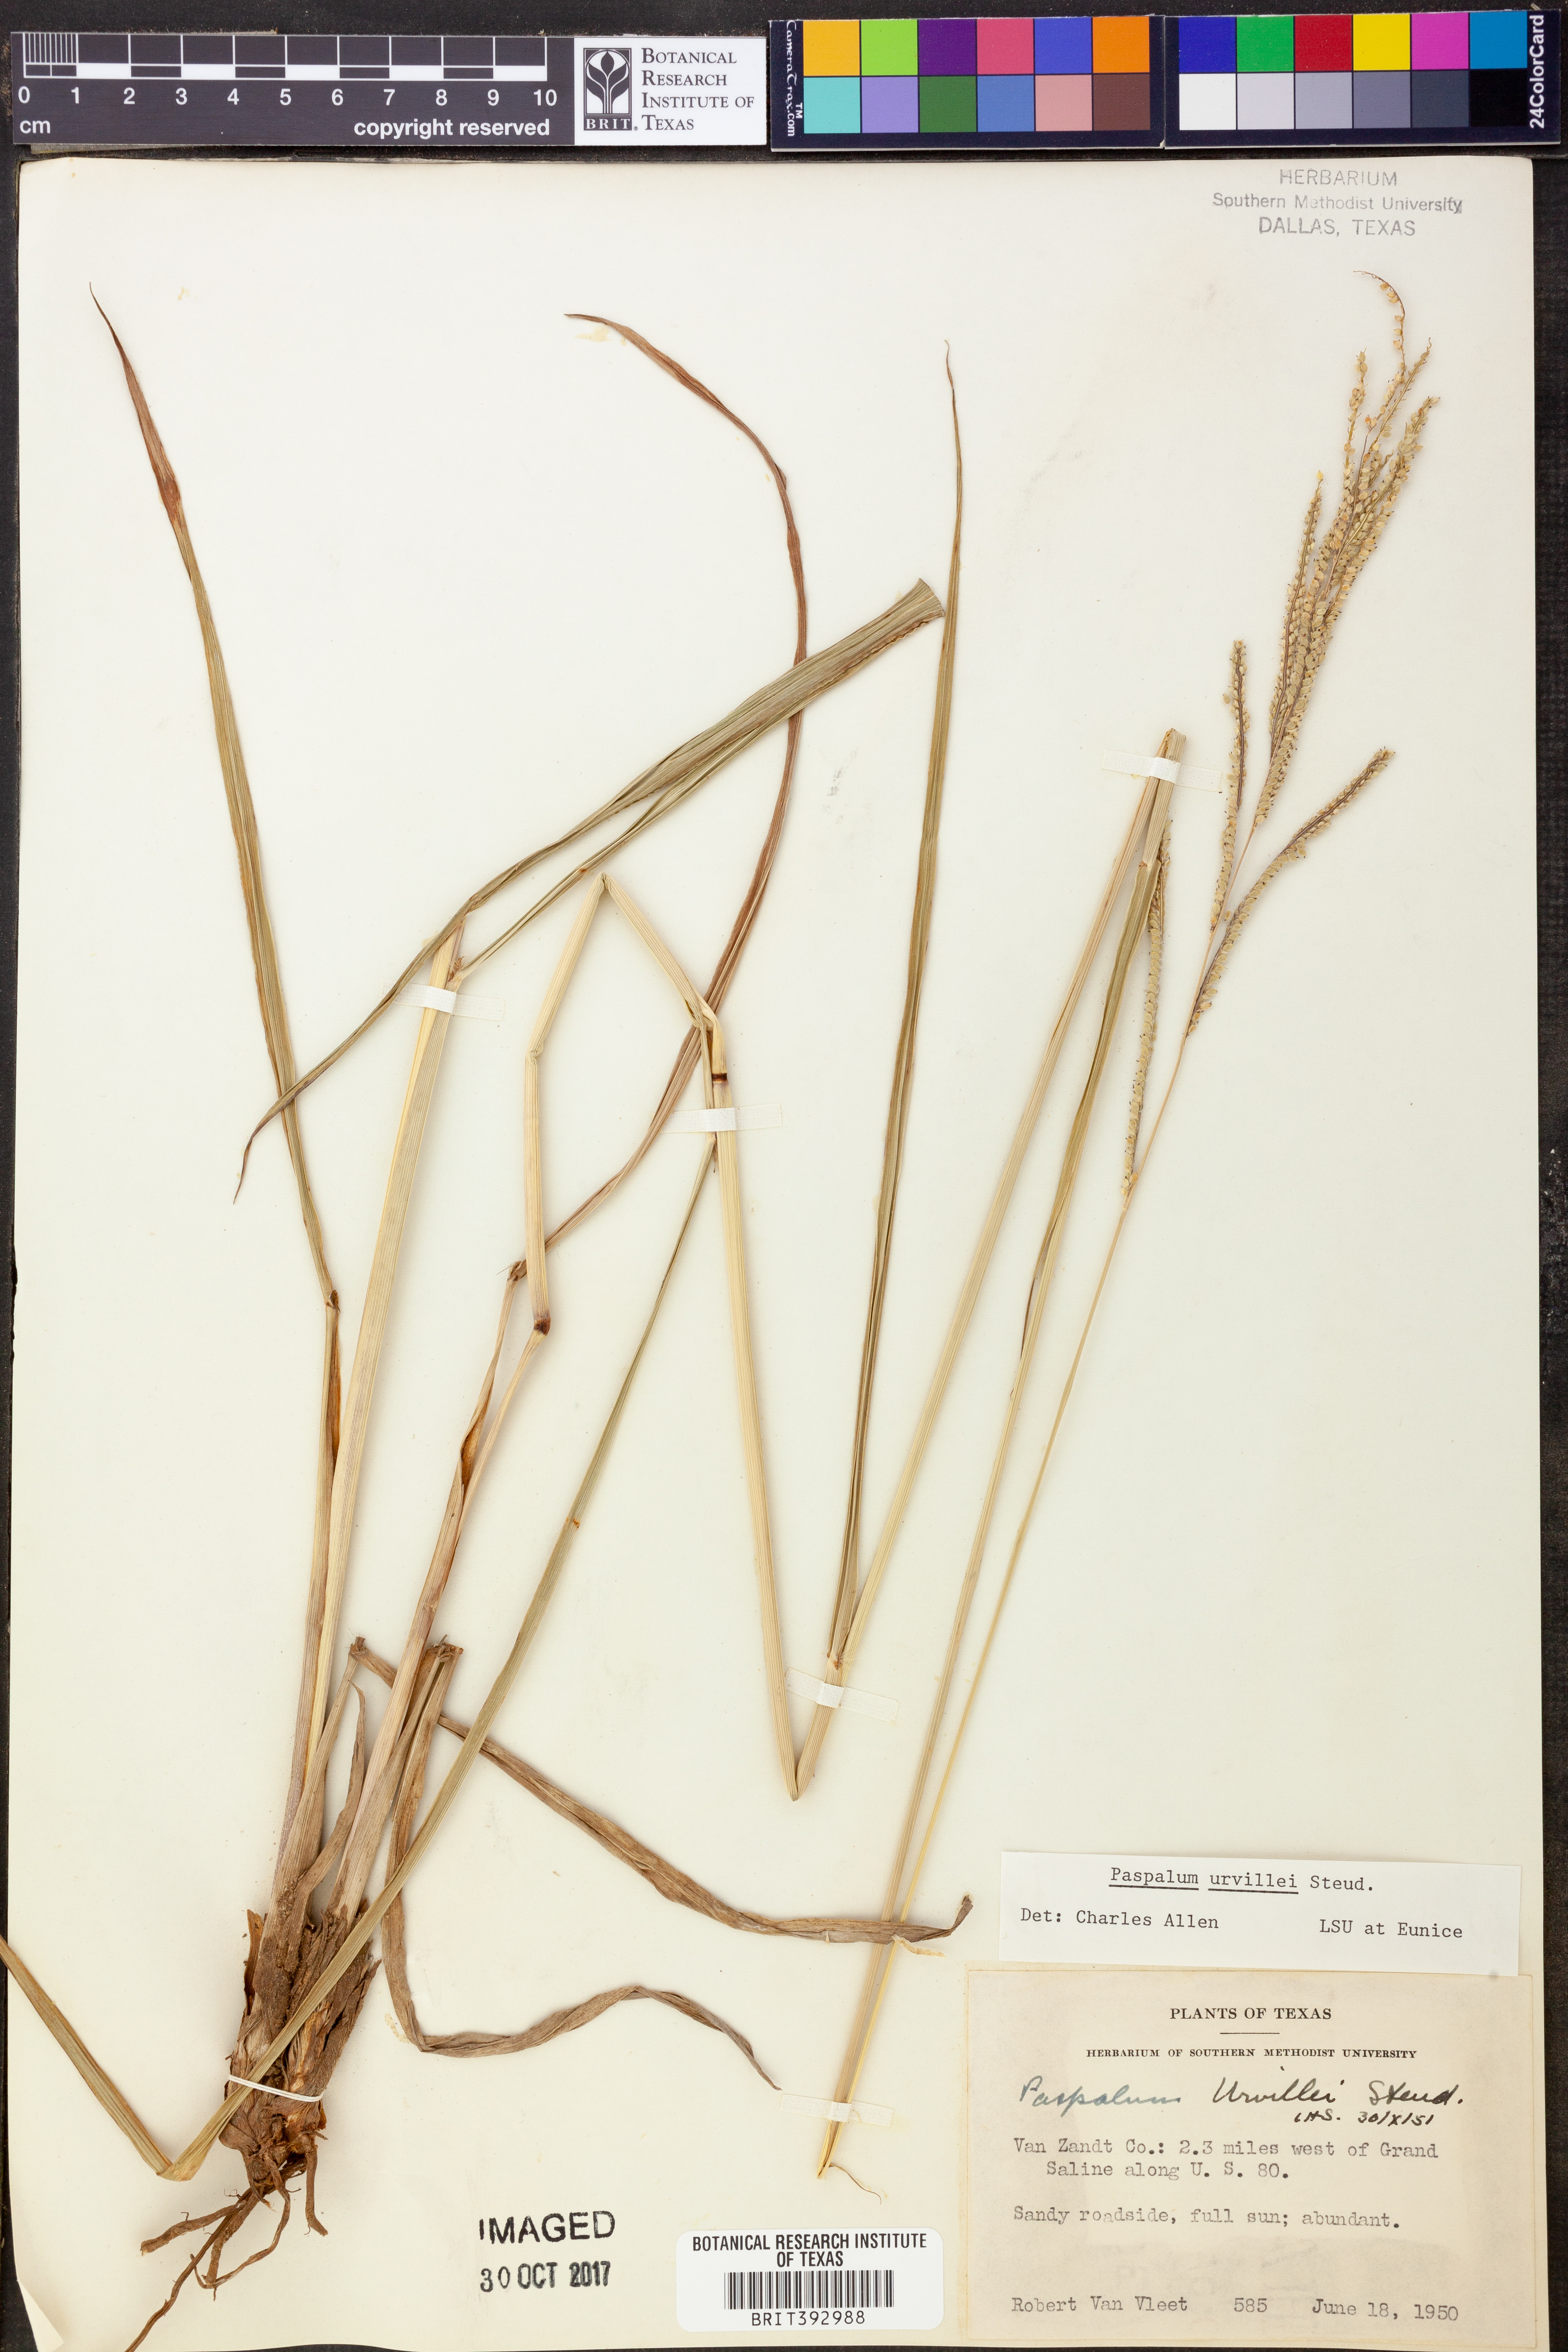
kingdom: Plantae
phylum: Tracheophyta
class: Liliopsida
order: Poales
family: Poaceae
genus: Paspalum
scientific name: Paspalum urvillei
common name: Vasey's grass
